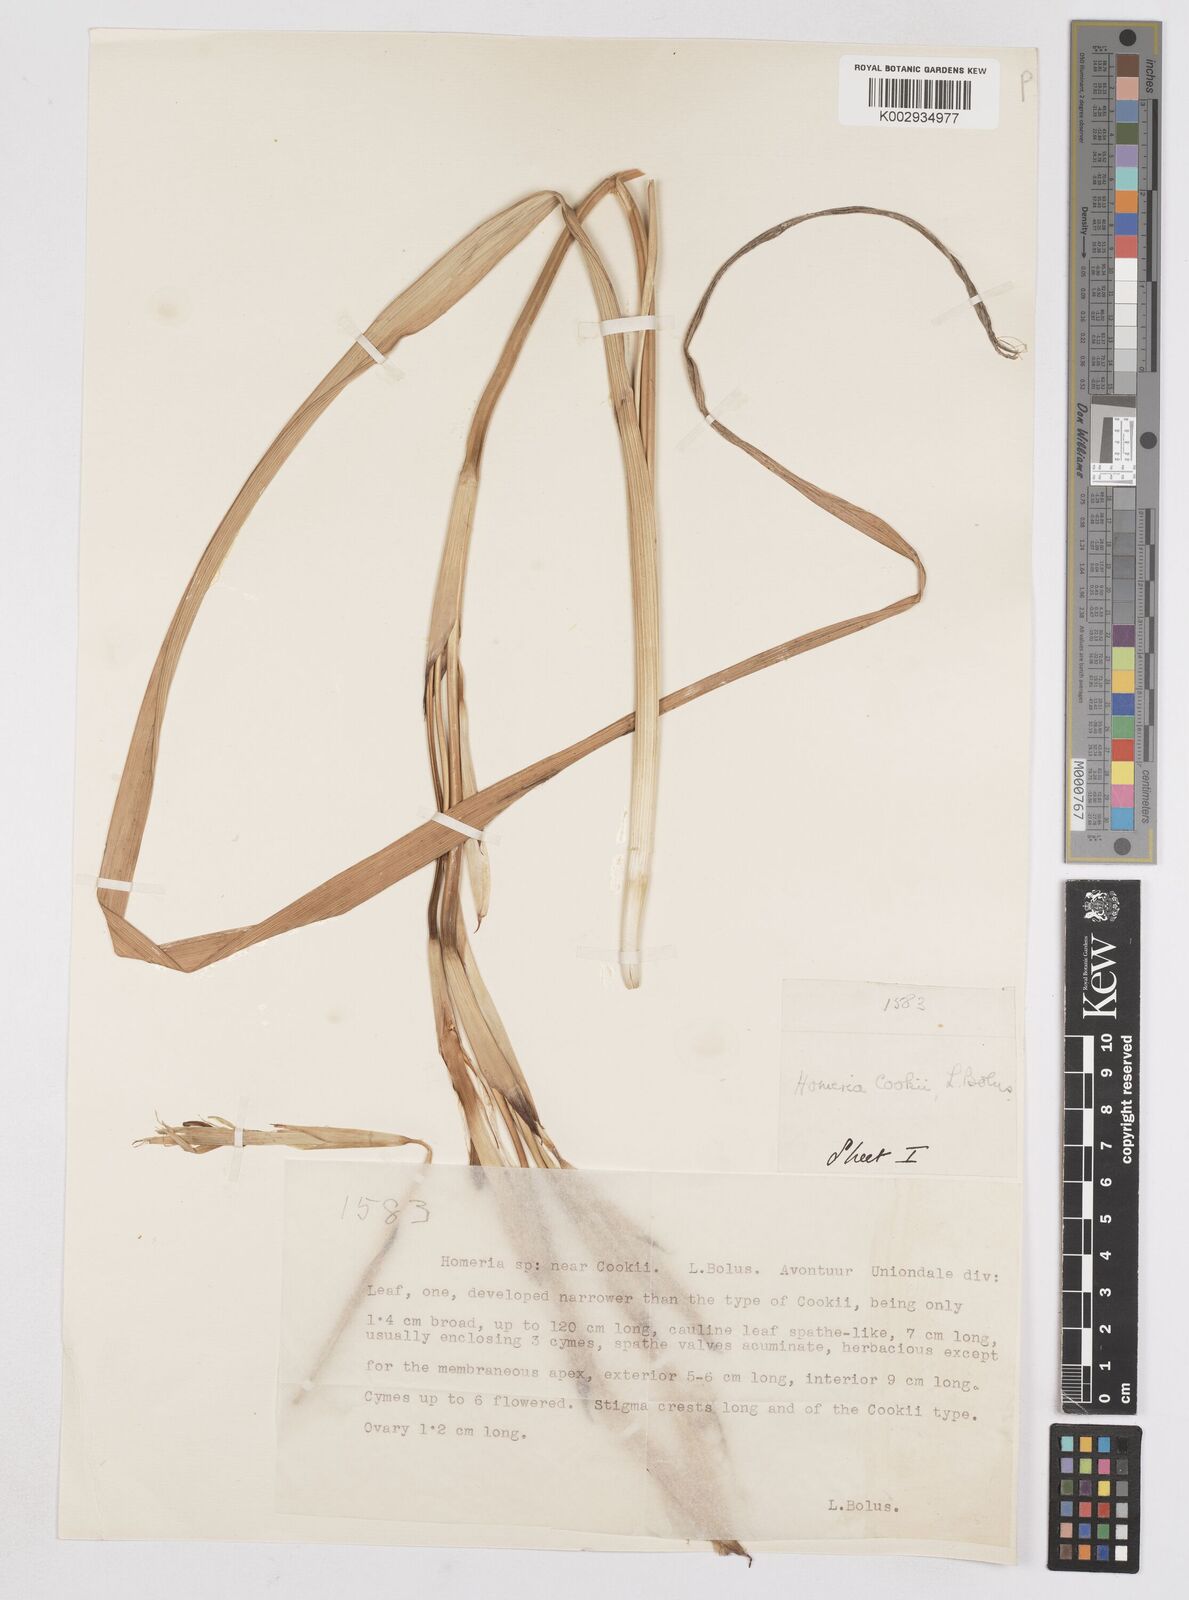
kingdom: Plantae
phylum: Tracheophyta
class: Liliopsida
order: Asparagales
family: Iridaceae
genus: Moraea
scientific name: Moraea cookii
